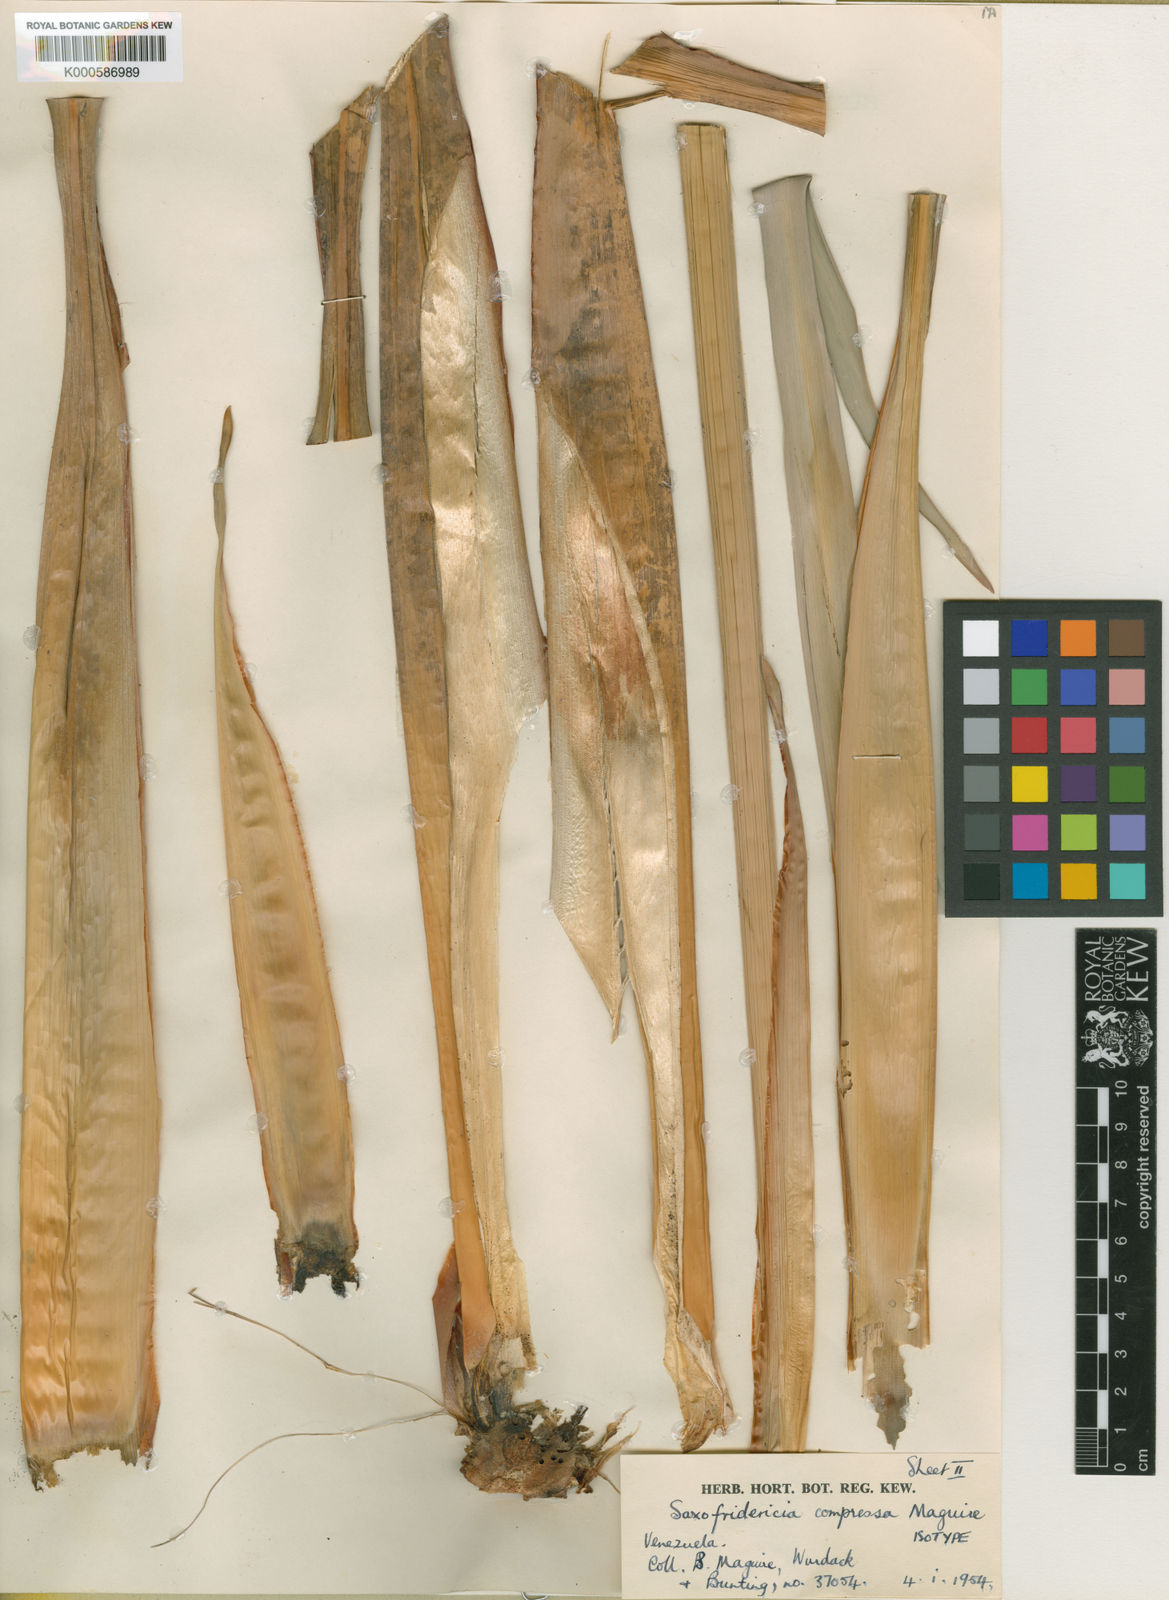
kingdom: Plantae
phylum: Tracheophyta
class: Liliopsida
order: Poales
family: Rapateaceae
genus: Saxofridericia
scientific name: Saxofridericia compressa
